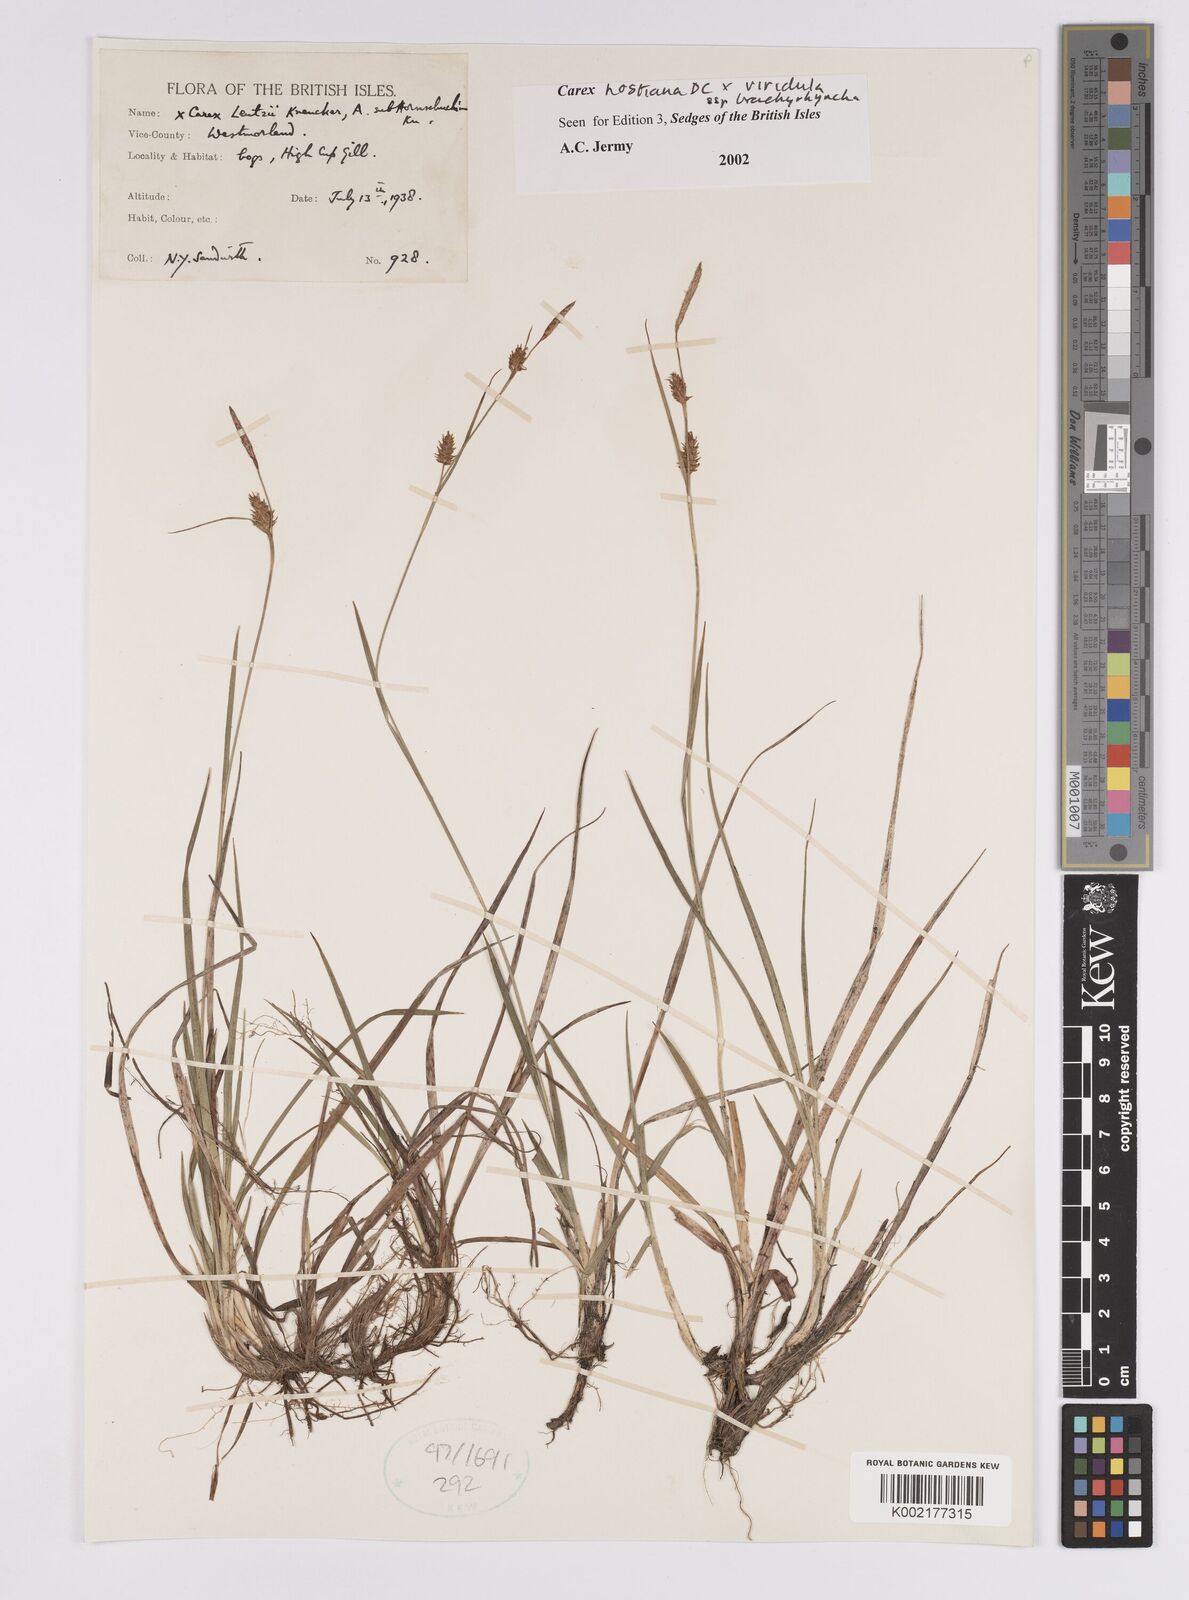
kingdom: Plantae
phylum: Tracheophyta
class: Liliopsida
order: Poales
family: Cyperaceae
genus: Carex
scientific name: Carex hostiana
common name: Tawny sedge
